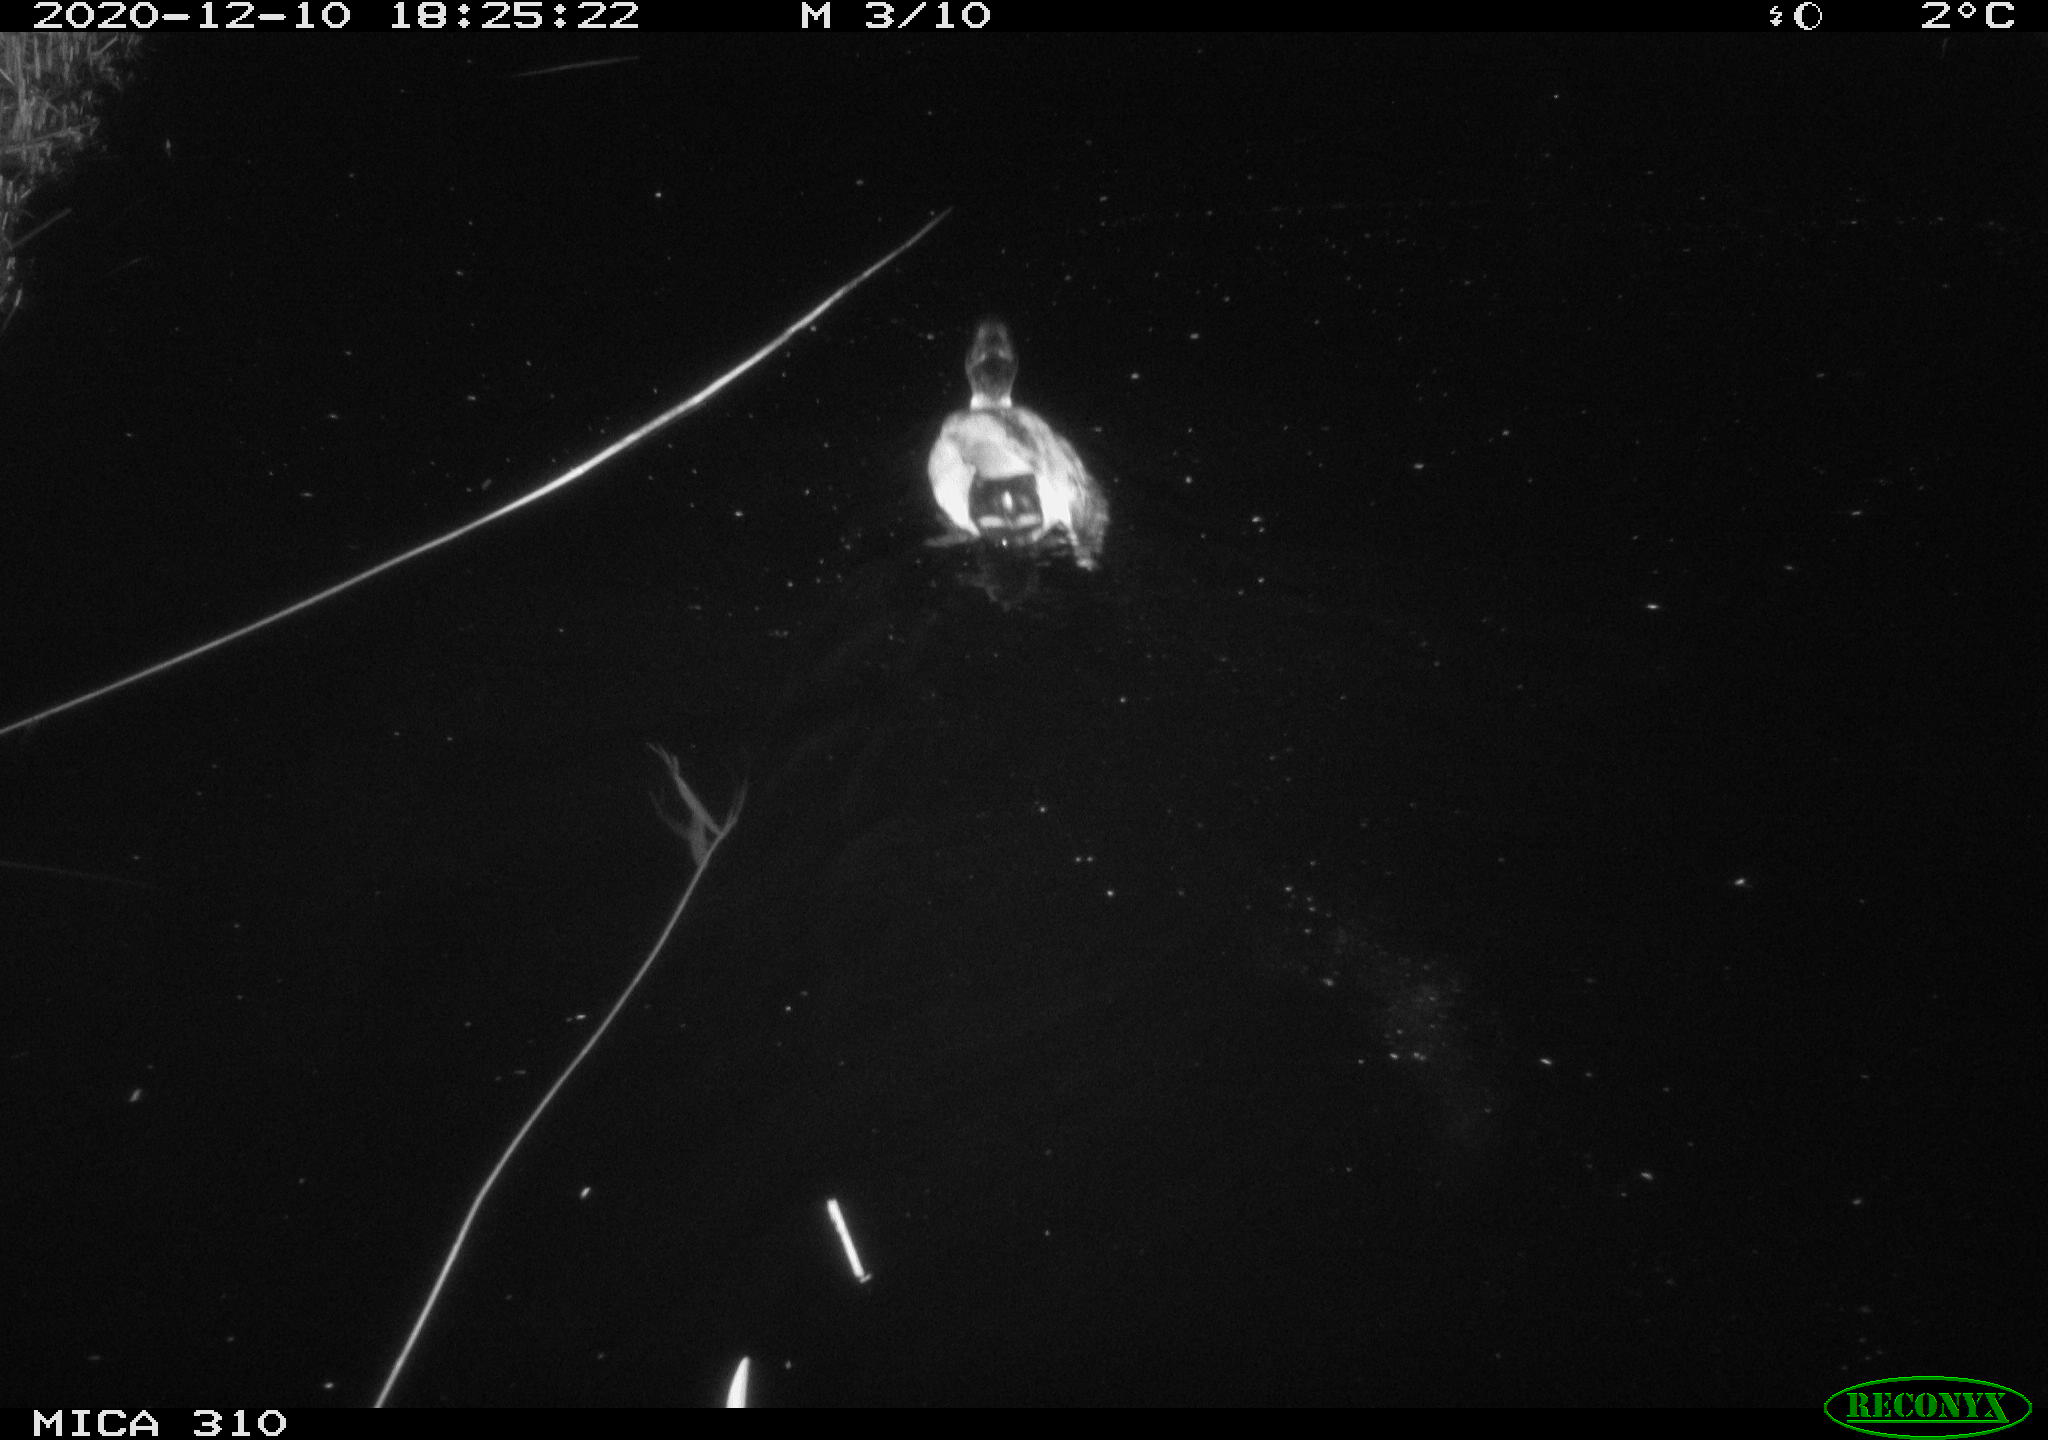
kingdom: Animalia
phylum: Chordata
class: Aves
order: Anseriformes
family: Anatidae
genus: Anas
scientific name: Anas platyrhynchos
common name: Mallard
